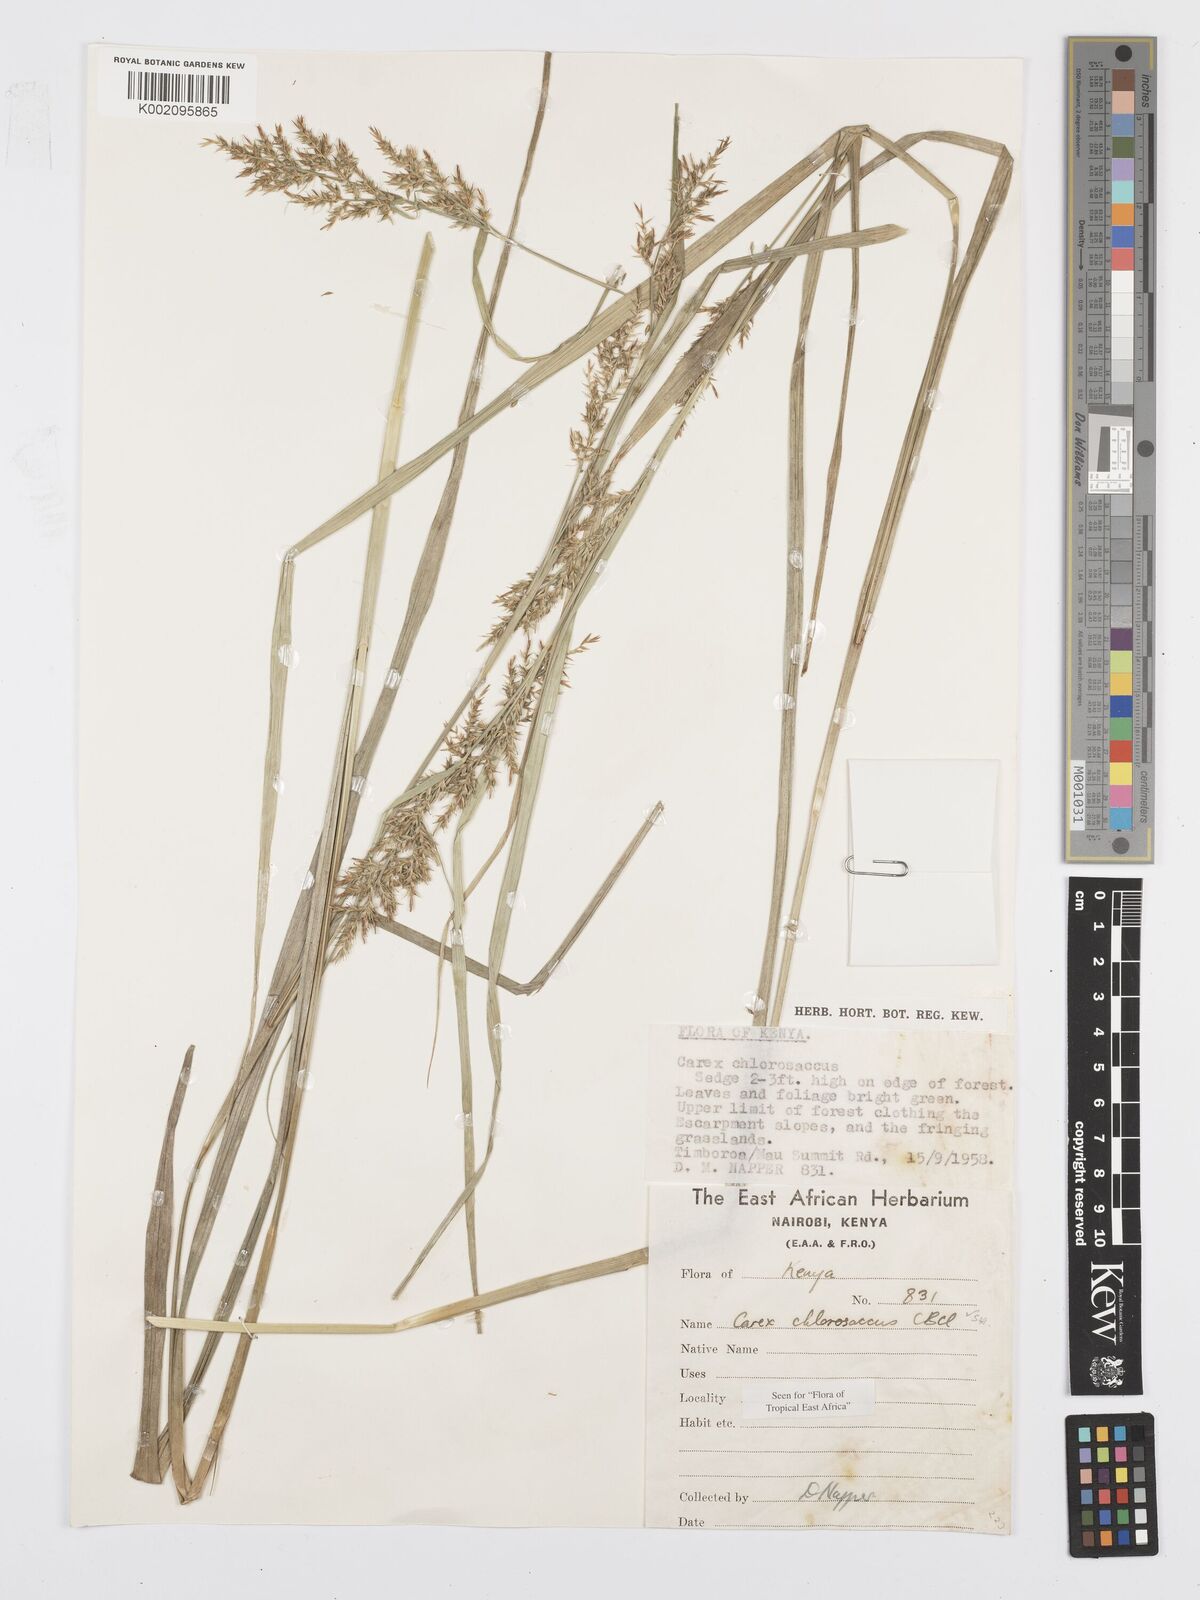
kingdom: Plantae
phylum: Tracheophyta
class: Liliopsida
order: Poales
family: Cyperaceae
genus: Carex
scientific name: Carex chlorosaccus
